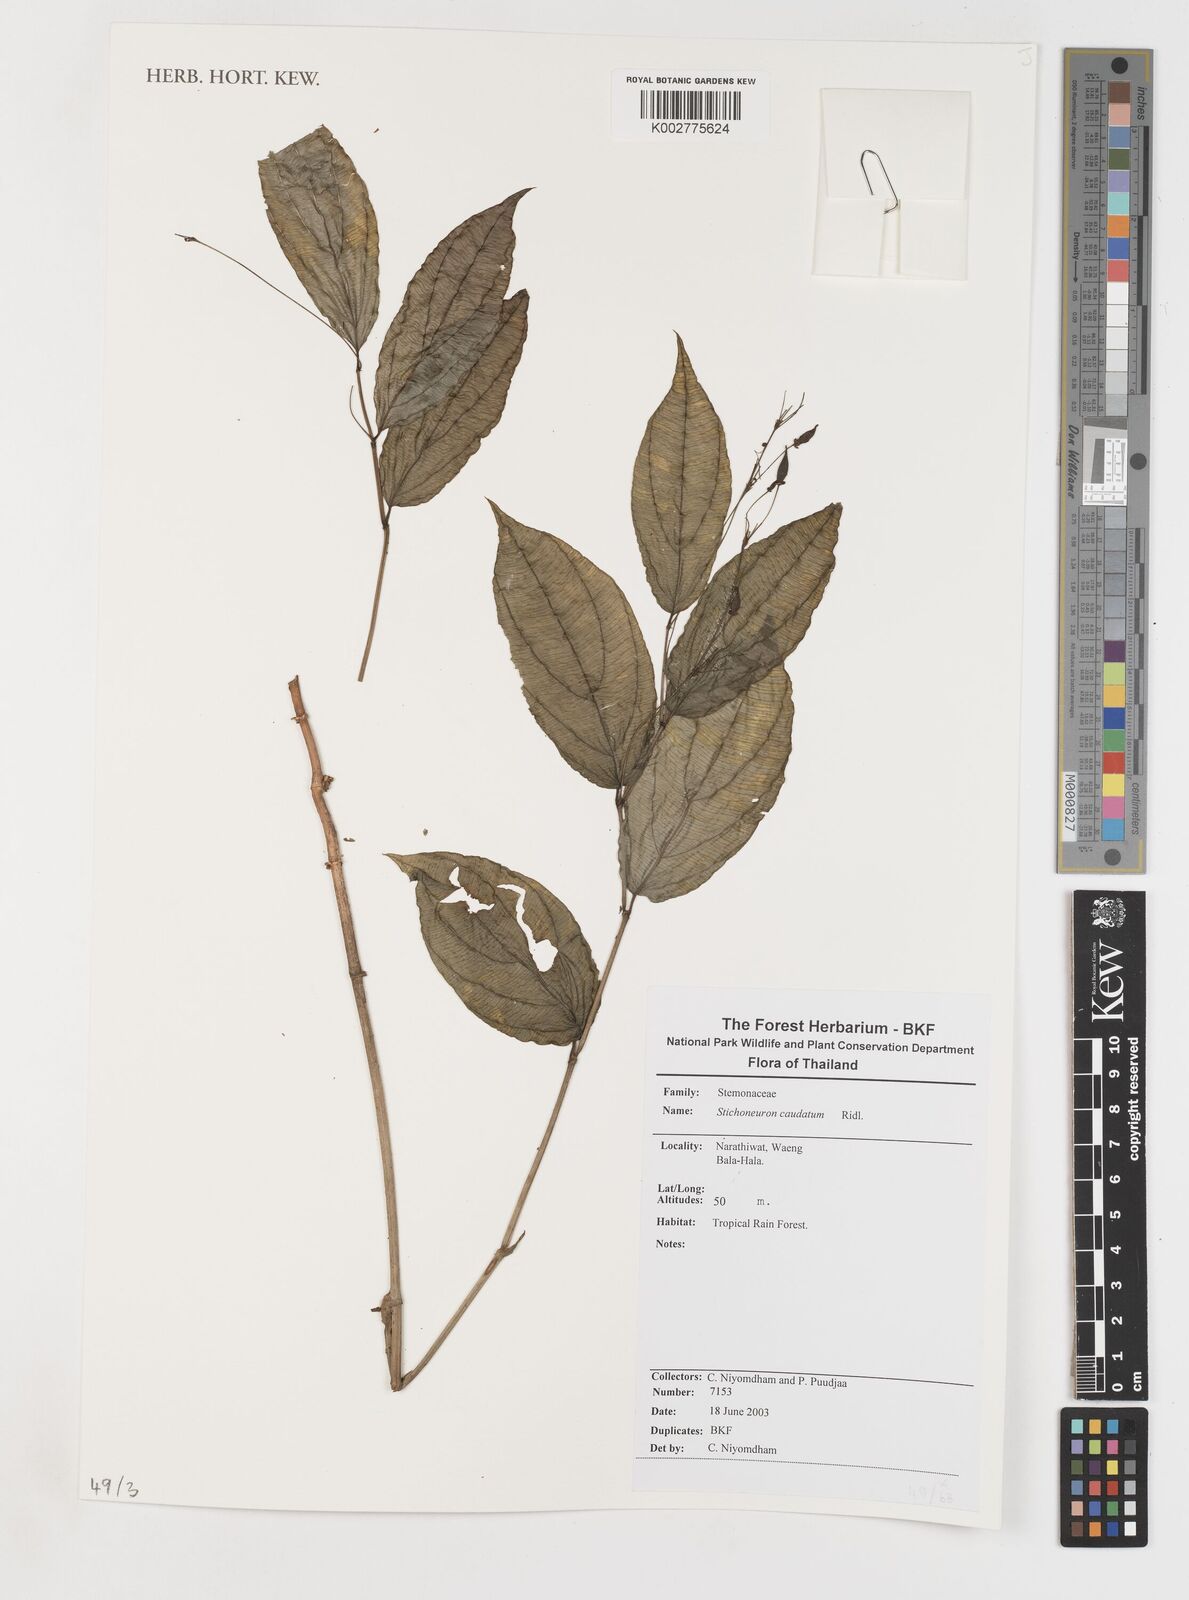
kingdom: Plantae
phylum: Tracheophyta
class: Liliopsida
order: Pandanales
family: Stemonaceae
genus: Stemona
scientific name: Stemona
